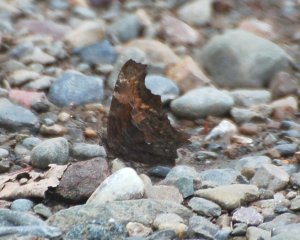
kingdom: Animalia
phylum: Arthropoda
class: Insecta
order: Lepidoptera
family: Nymphalidae
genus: Polygonia
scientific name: Polygonia progne
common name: Gray Comma
